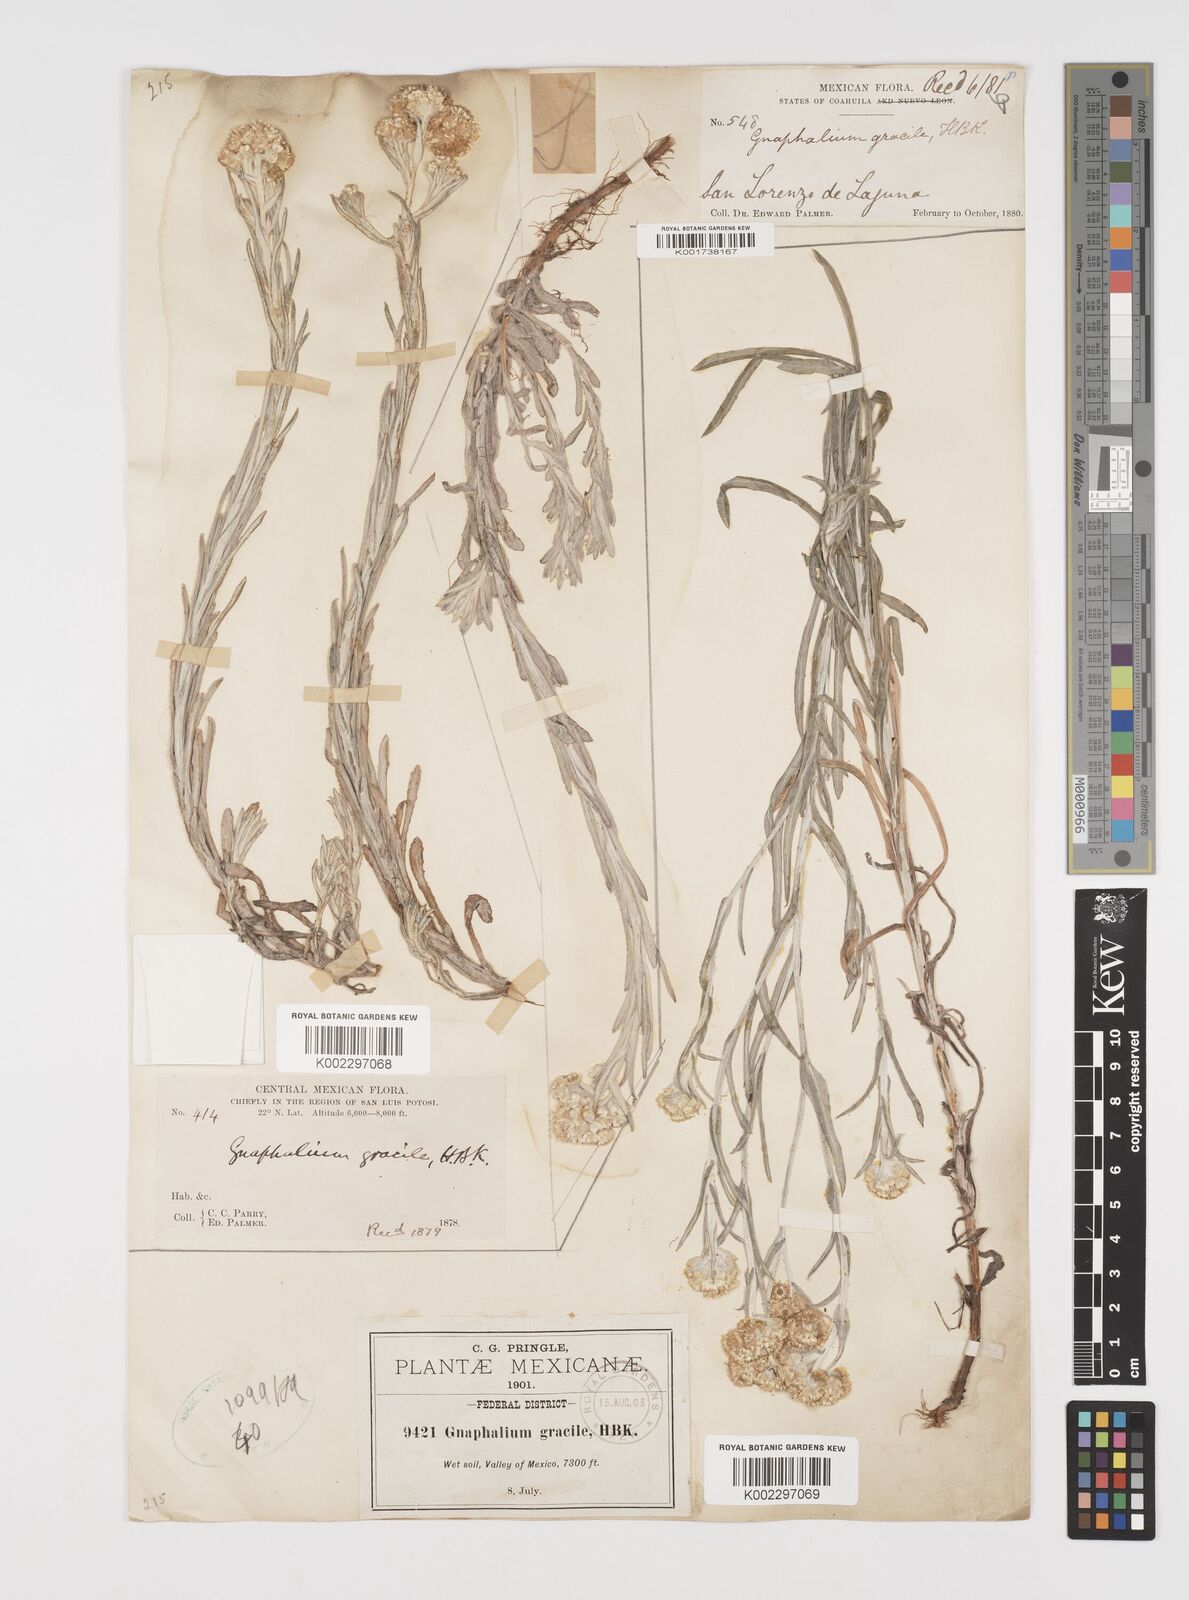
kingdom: Plantae
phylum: Tracheophyta
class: Magnoliopsida
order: Asterales
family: Asteraceae
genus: Pseudognaphalium
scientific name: Pseudognaphalium
